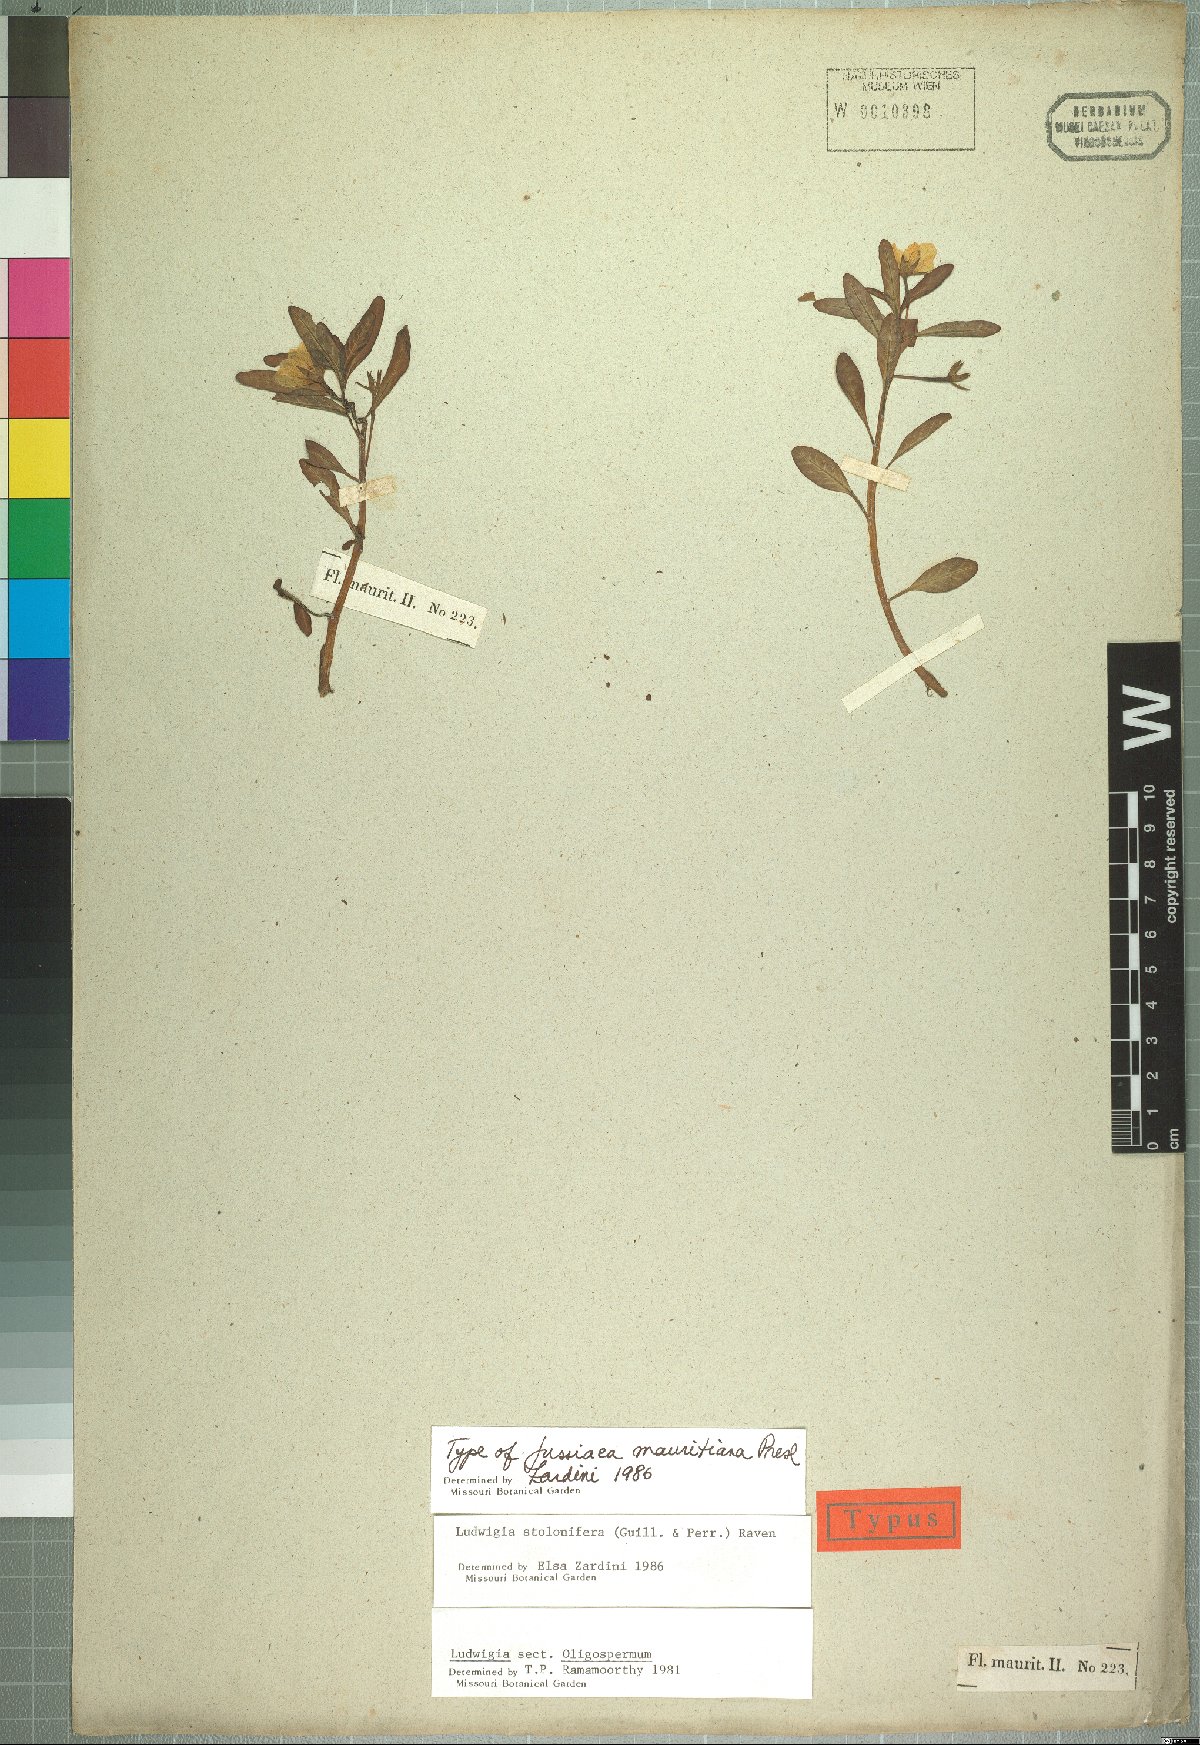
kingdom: Plantae
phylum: Tracheophyta
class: Magnoliopsida
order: Myrtales
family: Onagraceae
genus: Ludwigia
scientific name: Ludwigia adscendens
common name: Creeping water primrose
